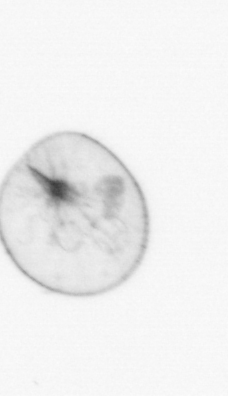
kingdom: Chromista
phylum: Myzozoa
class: Dinophyceae
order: Noctilucales
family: Noctilucaceae
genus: Noctiluca
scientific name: Noctiluca scintillans
